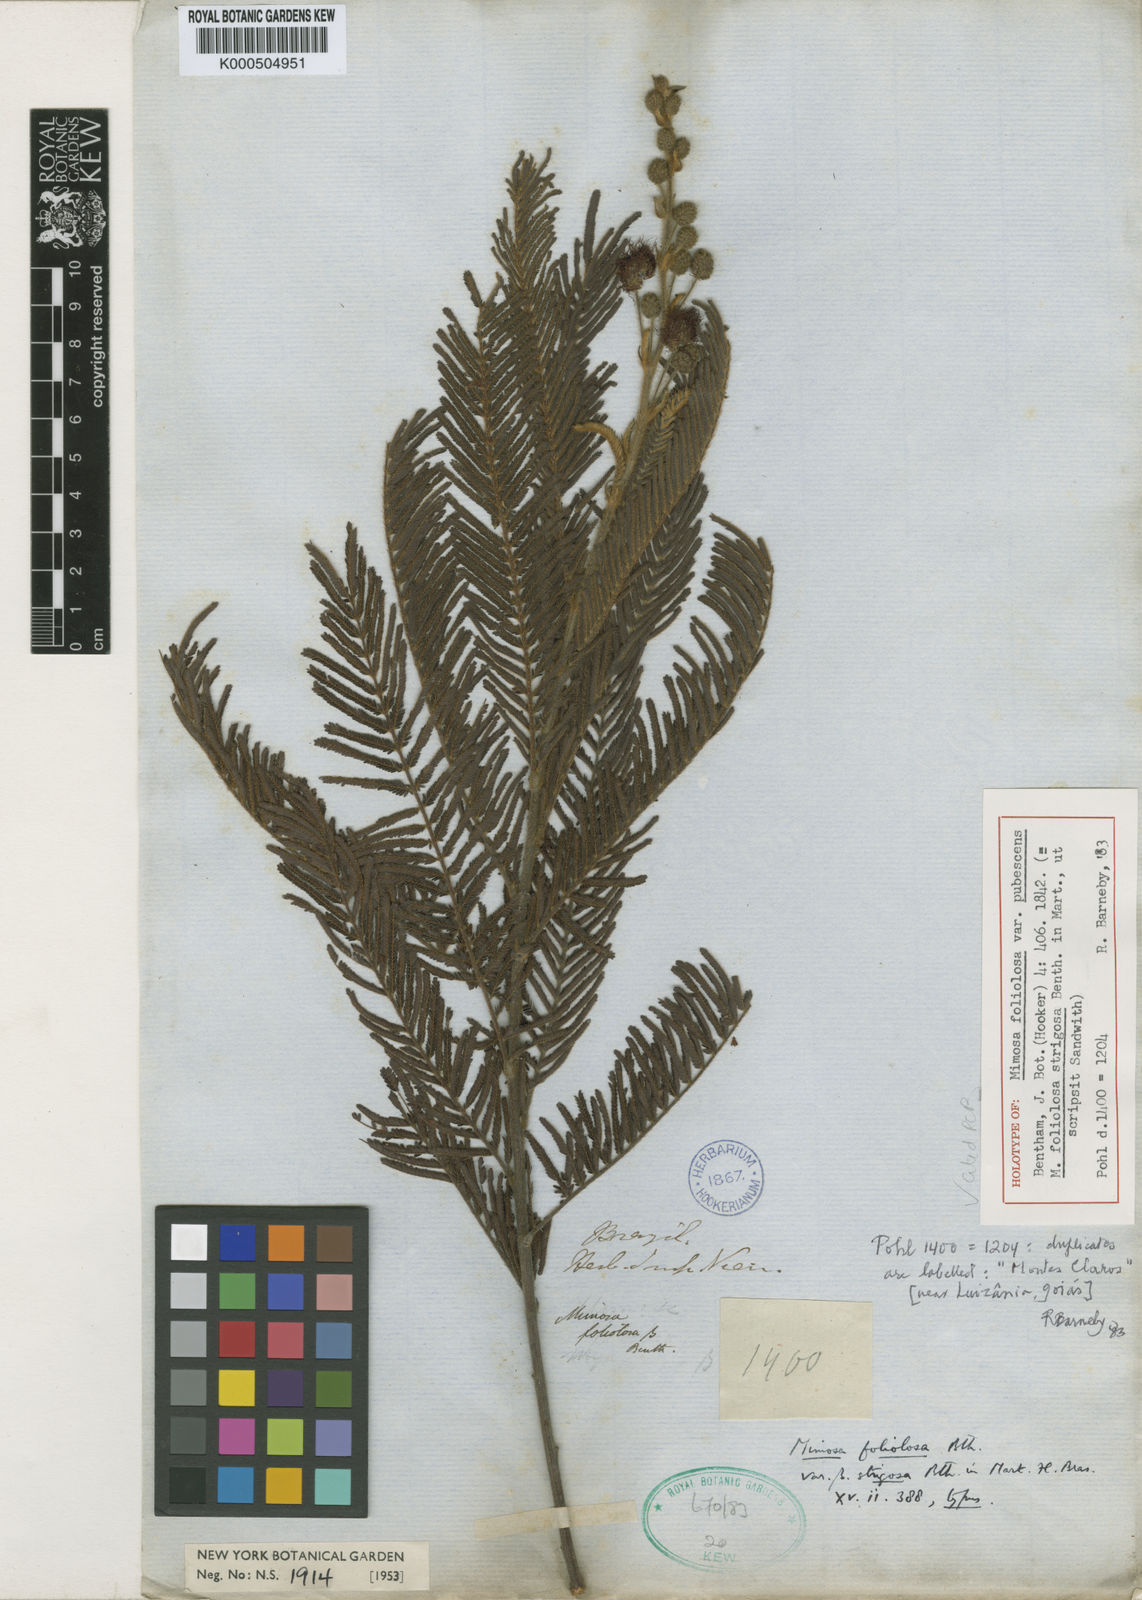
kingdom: Plantae
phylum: Tracheophyta
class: Magnoliopsida
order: Fabales
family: Fabaceae
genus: Mimosa
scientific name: Mimosa
